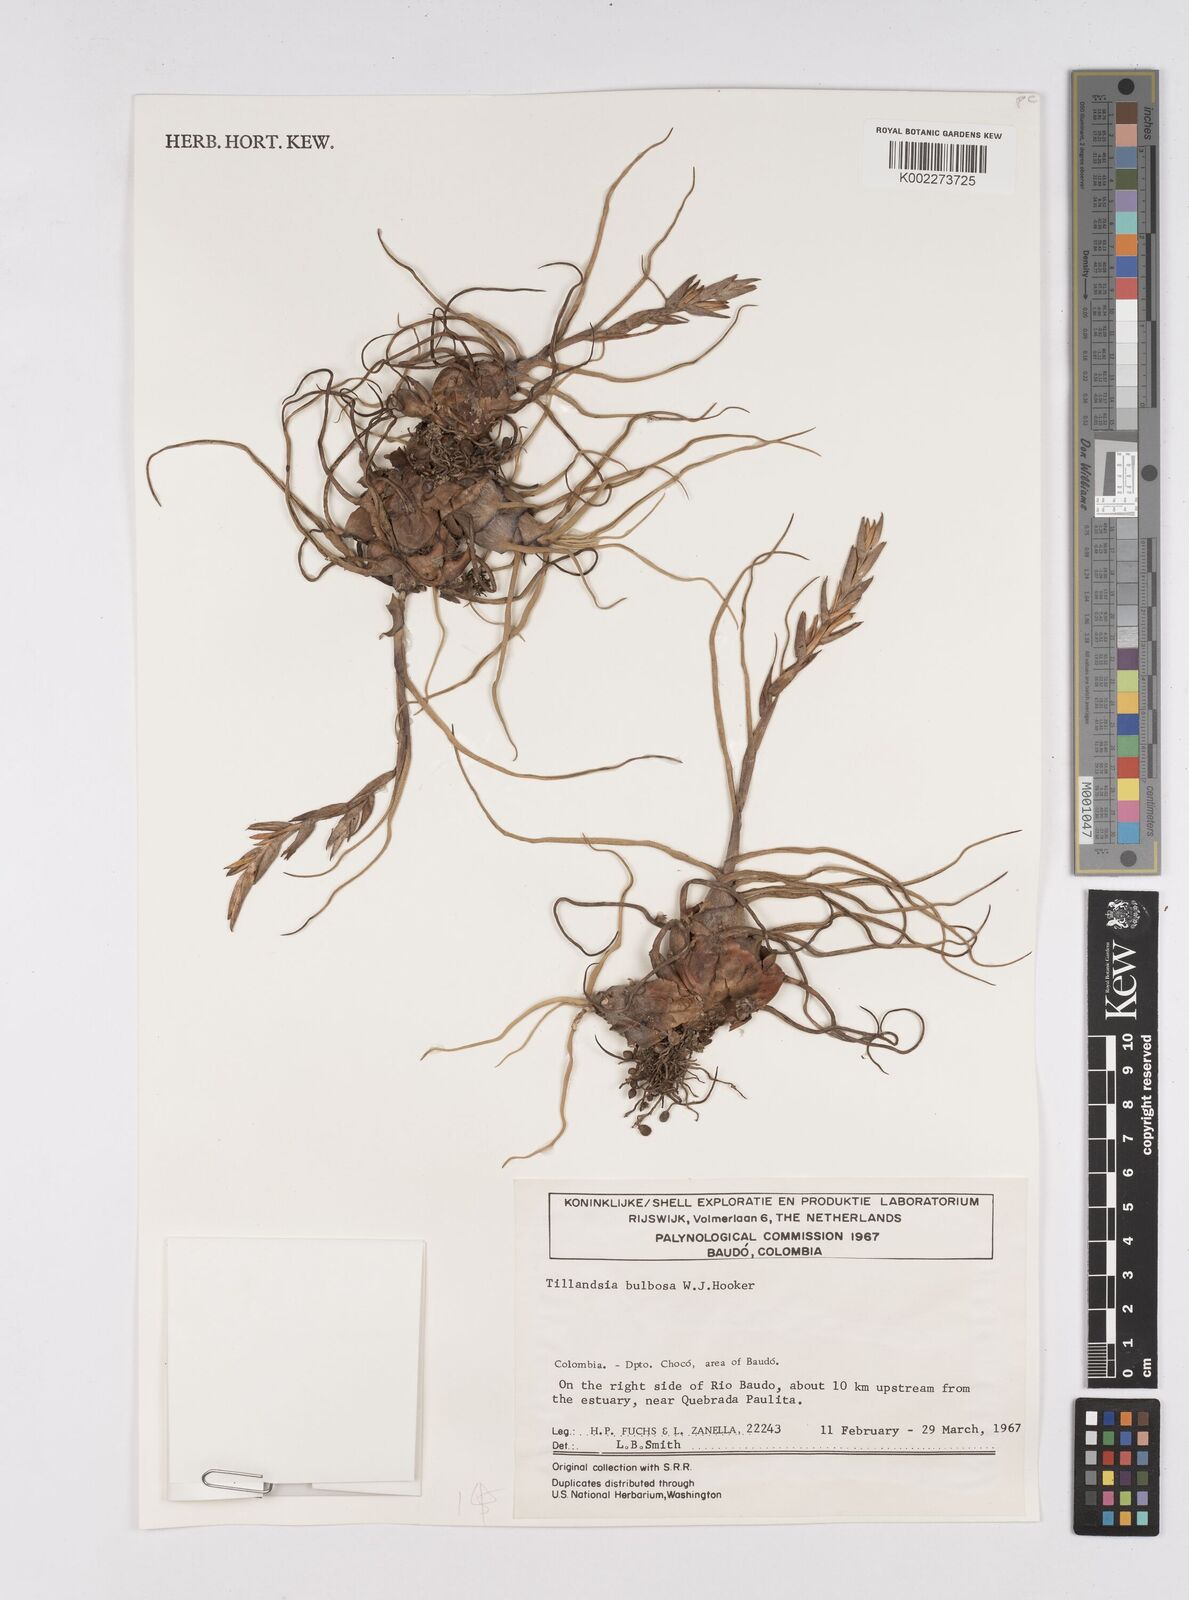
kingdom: Plantae
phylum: Tracheophyta
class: Liliopsida
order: Poales
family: Bromeliaceae
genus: Tillandsia
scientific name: Tillandsia bulbosa
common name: Bulbous airplant
